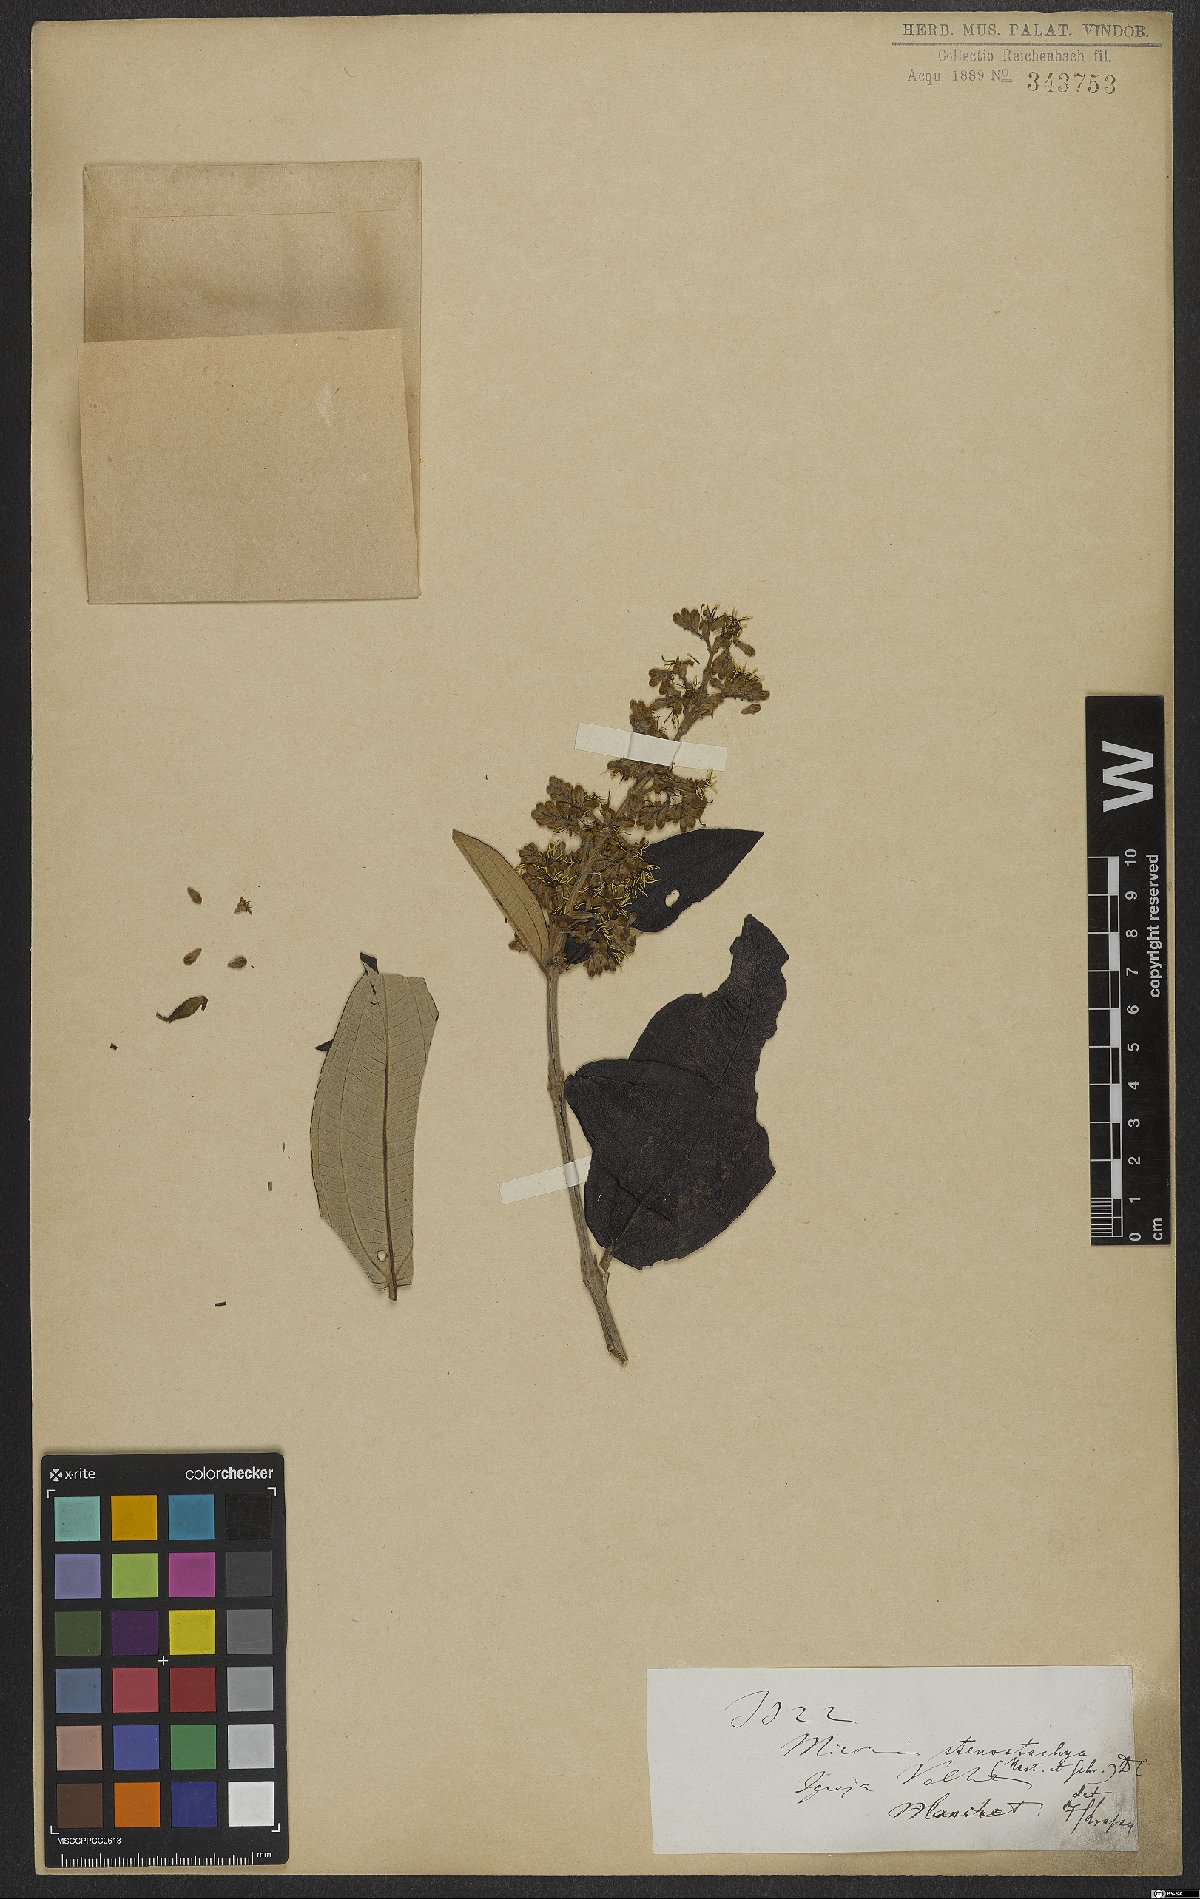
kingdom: Plantae
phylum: Tracheophyta
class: Magnoliopsida
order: Myrtales
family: Melastomataceae
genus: Miconia
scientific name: Miconia stenostachya
